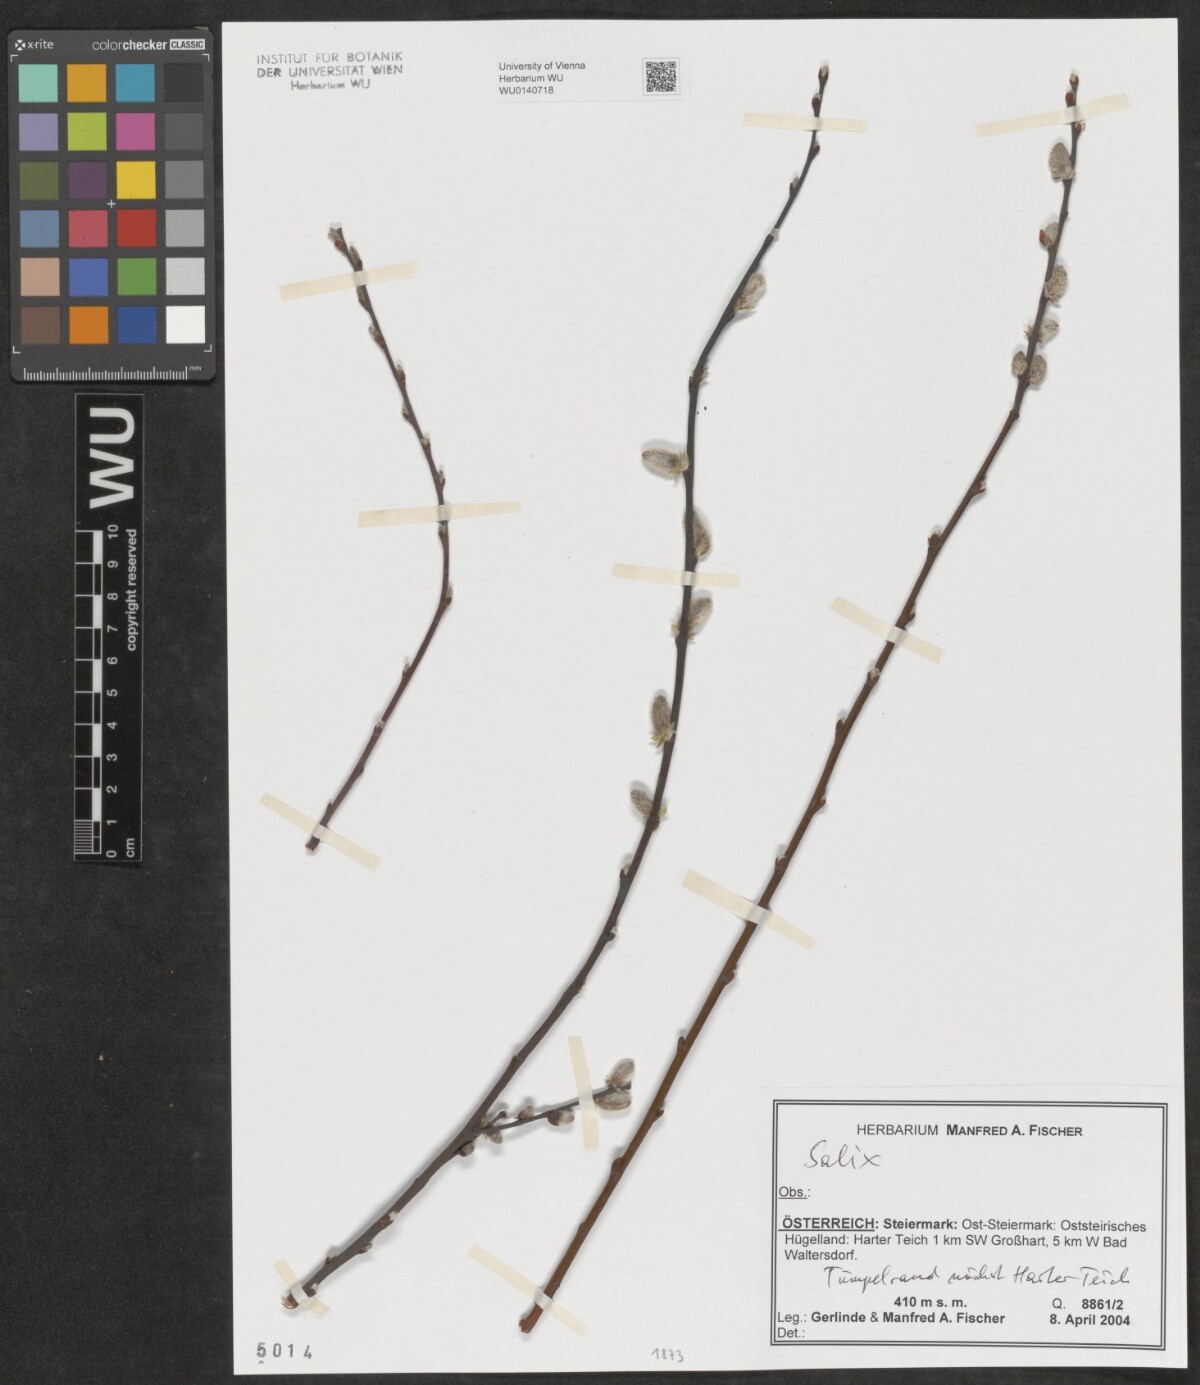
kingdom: Plantae
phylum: Tracheophyta
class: Magnoliopsida
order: Malpighiales
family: Salicaceae
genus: Salix
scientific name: Salix
